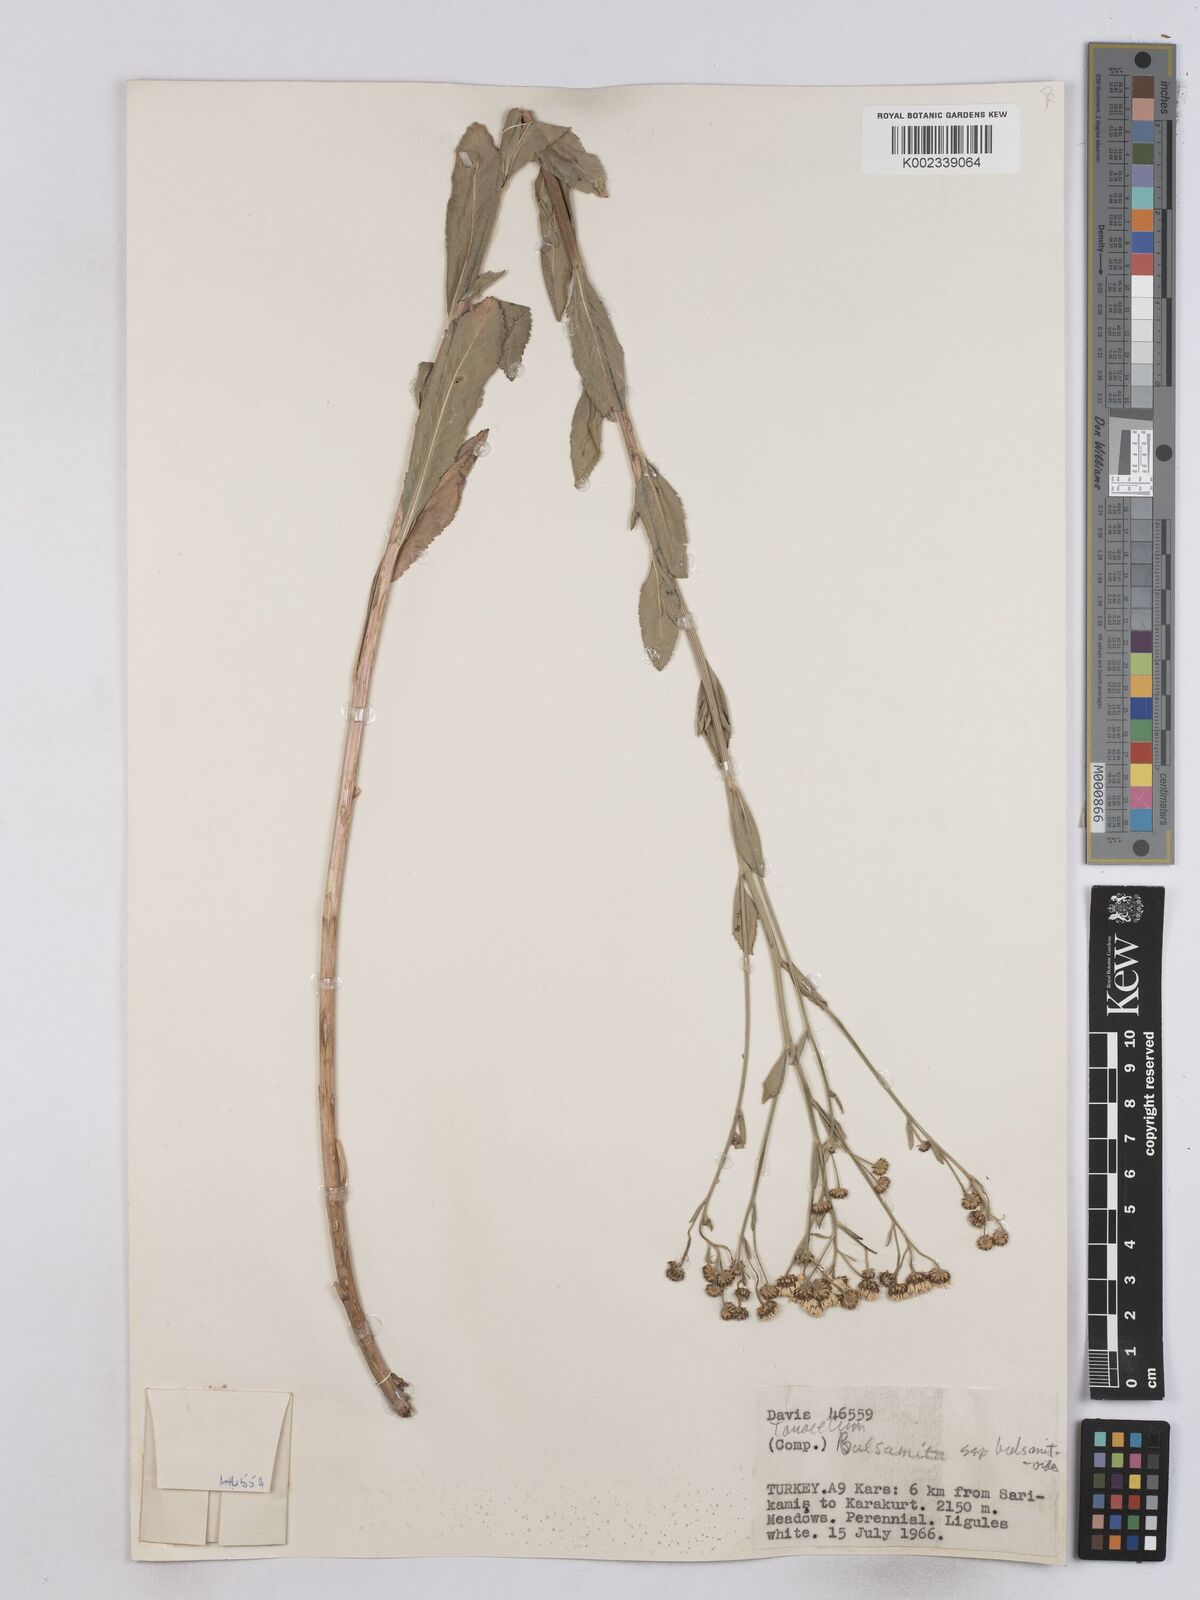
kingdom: Plantae
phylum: Tracheophyta
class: Magnoliopsida
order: Asterales
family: Asteraceae
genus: Tanacetum
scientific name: Tanacetum balsamita
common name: Costmary
